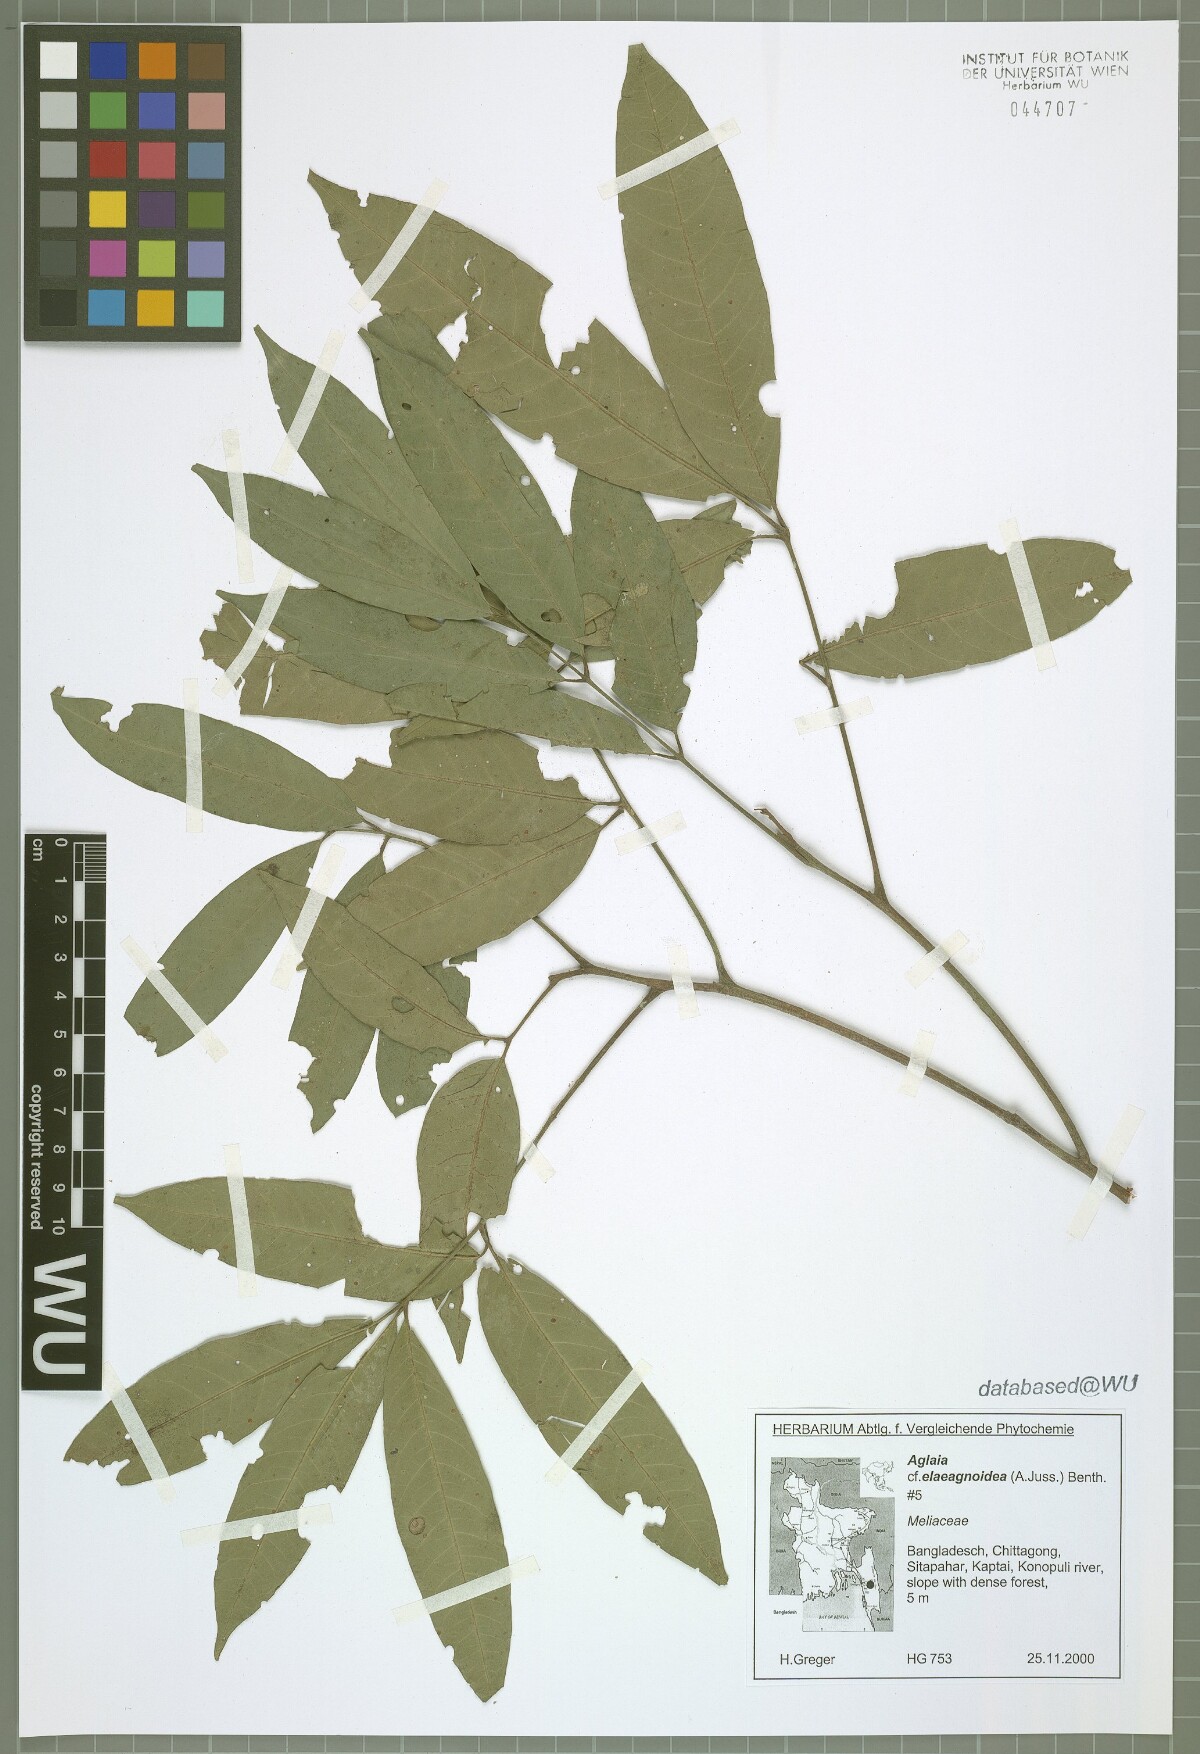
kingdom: Plantae
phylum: Tracheophyta
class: Magnoliopsida
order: Sapindales
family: Meliaceae
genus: Aglaia
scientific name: Aglaia elaeagnoidea
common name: Droopyleaf
